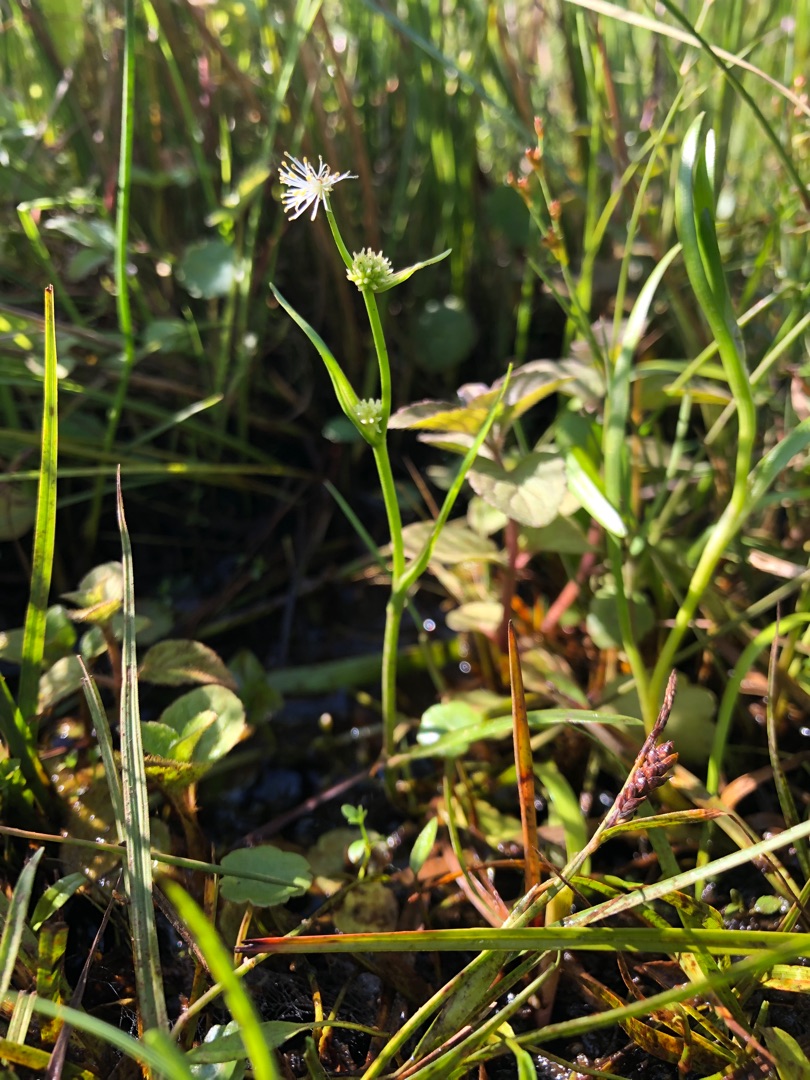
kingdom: Plantae
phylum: Tracheophyta
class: Liliopsida
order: Poales
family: Typhaceae
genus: Sparganium
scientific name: Sparganium natans
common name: Spæd pindsvineknop
